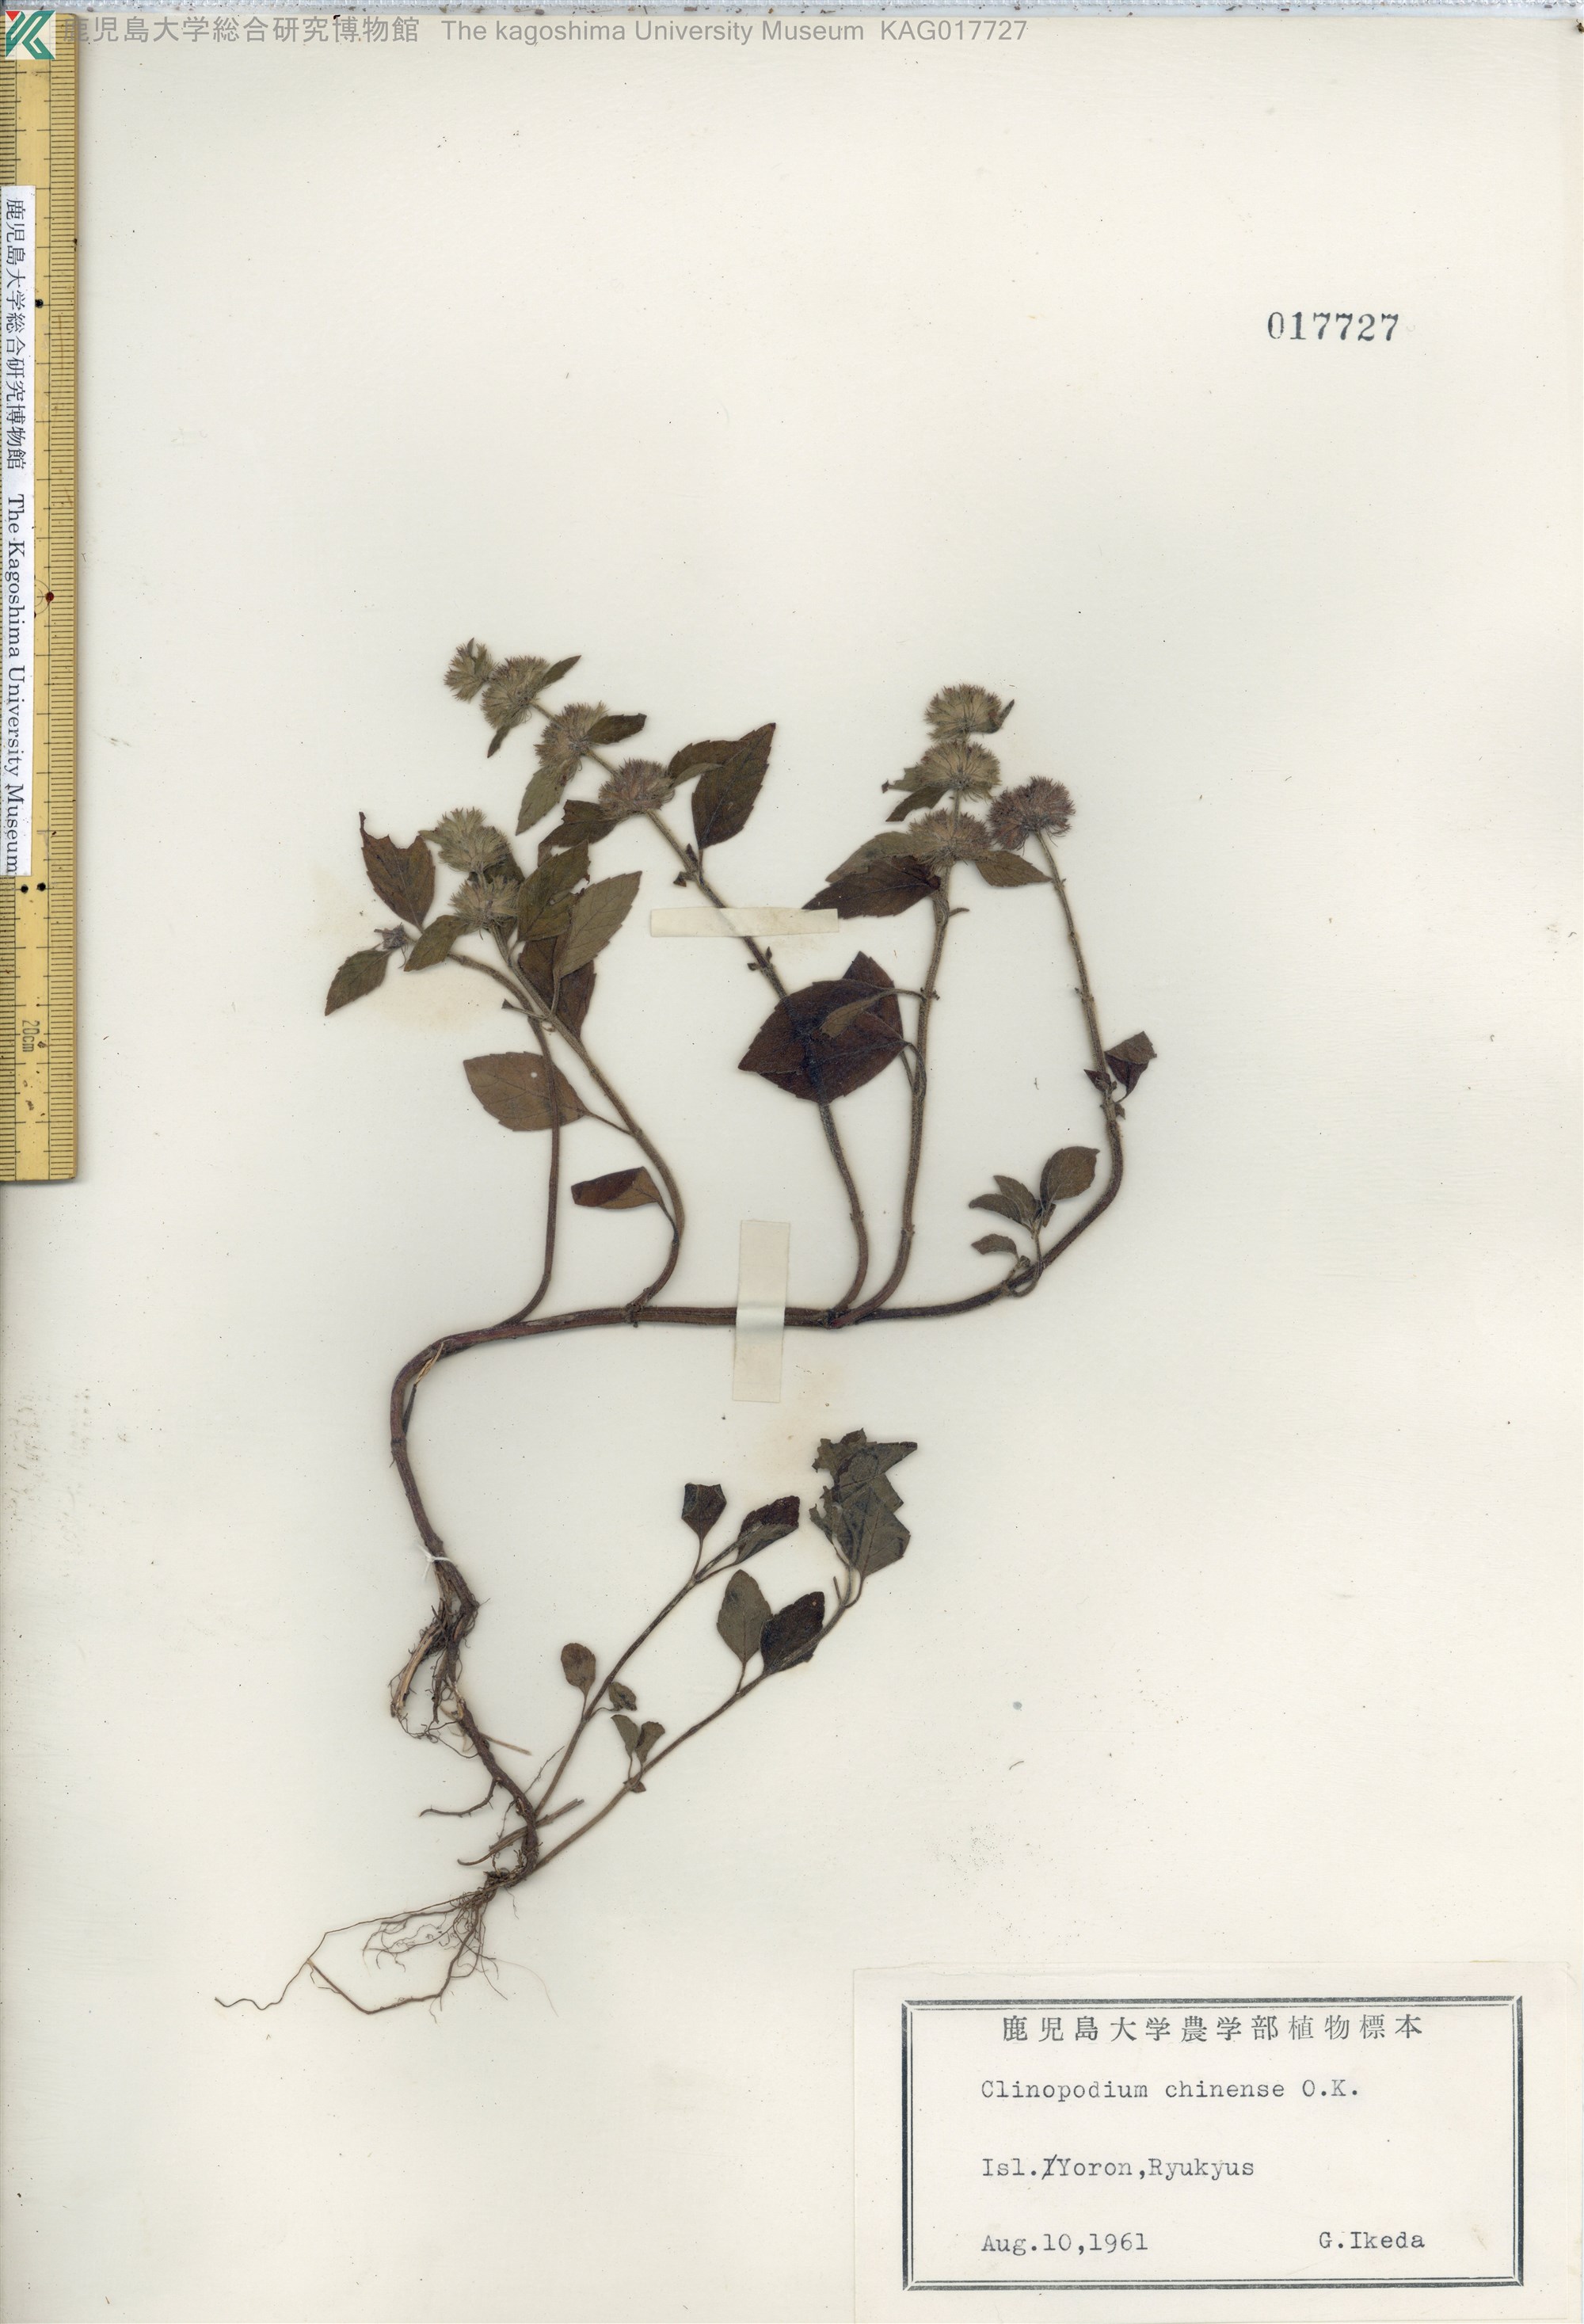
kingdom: Plantae
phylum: Tracheophyta
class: Magnoliopsida
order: Lamiales
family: Lamiaceae
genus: Clinopodium
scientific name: Clinopodium chinense
